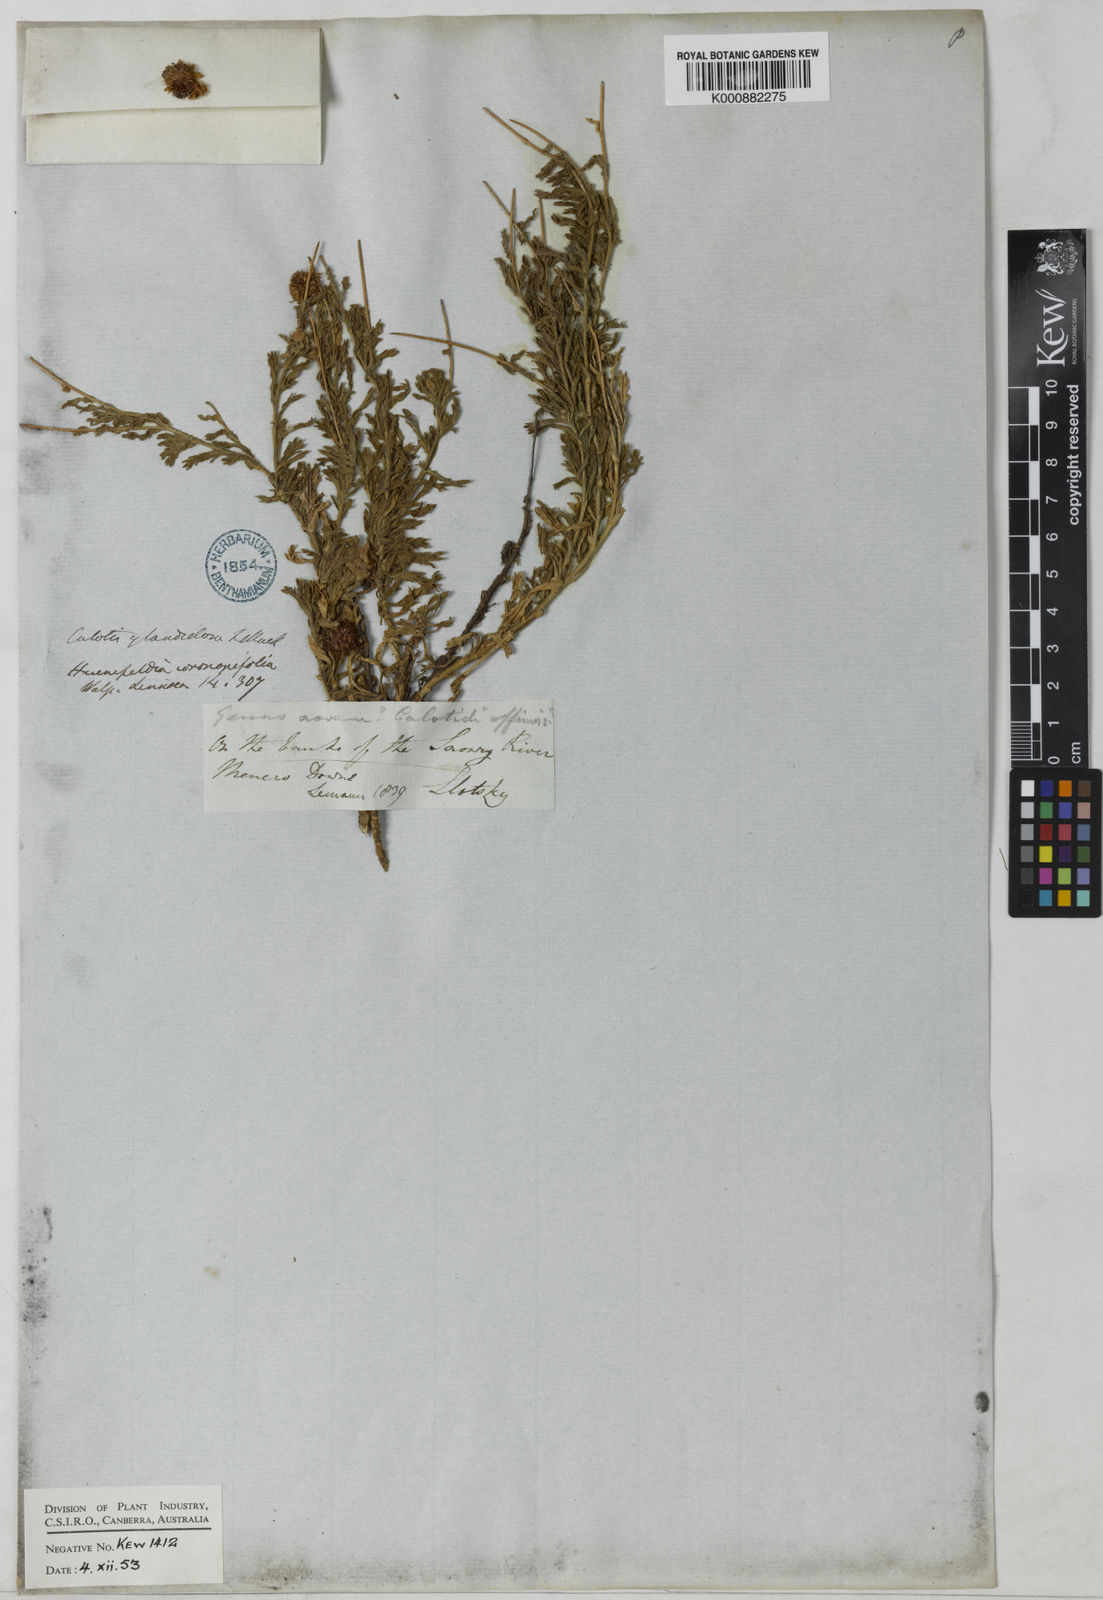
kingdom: Plantae
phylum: Tracheophyta
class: Magnoliopsida
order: Asterales
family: Asteraceae
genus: Calotis
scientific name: Calotis glandulosa
